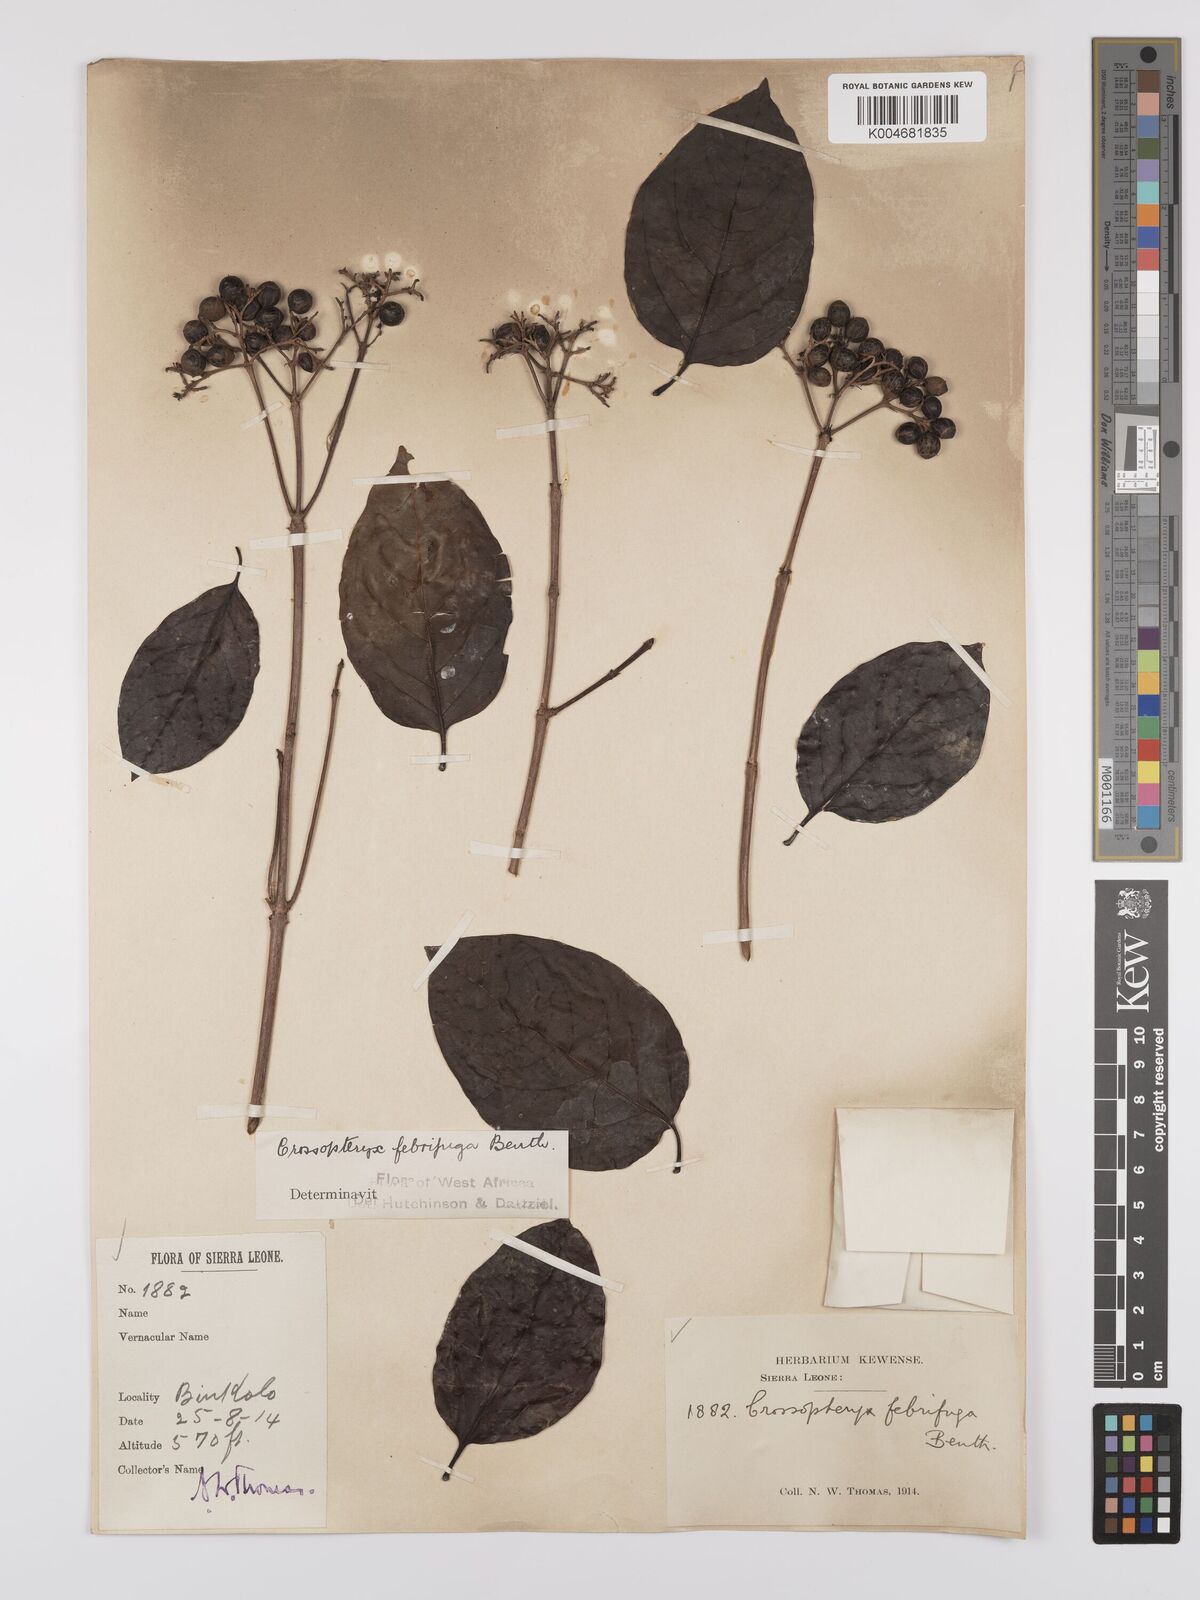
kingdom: Plantae
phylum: Tracheophyta
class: Magnoliopsida
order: Gentianales
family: Rubiaceae
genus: Crossopteryx
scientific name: Crossopteryx febrifuga
